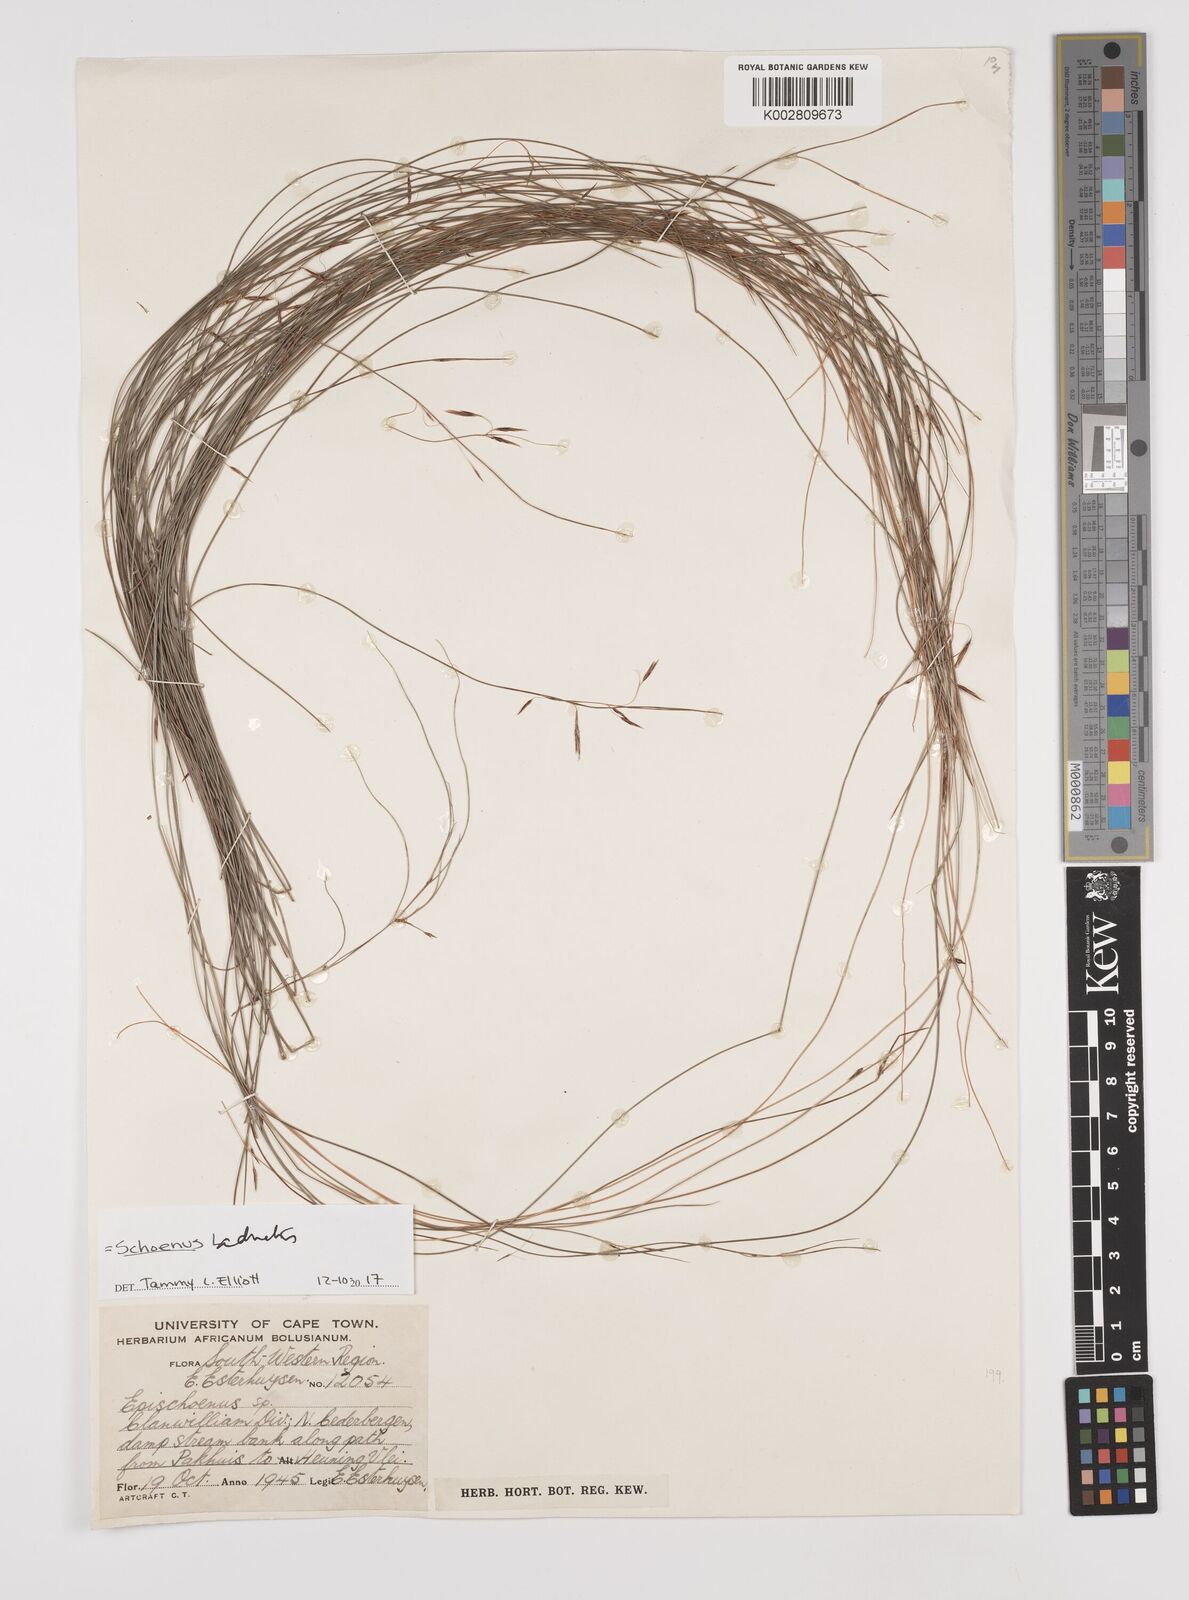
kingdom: Plantae
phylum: Tracheophyta
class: Liliopsida
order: Poales
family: Cyperaceae
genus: Schoenus
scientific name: Schoenus adnatus
